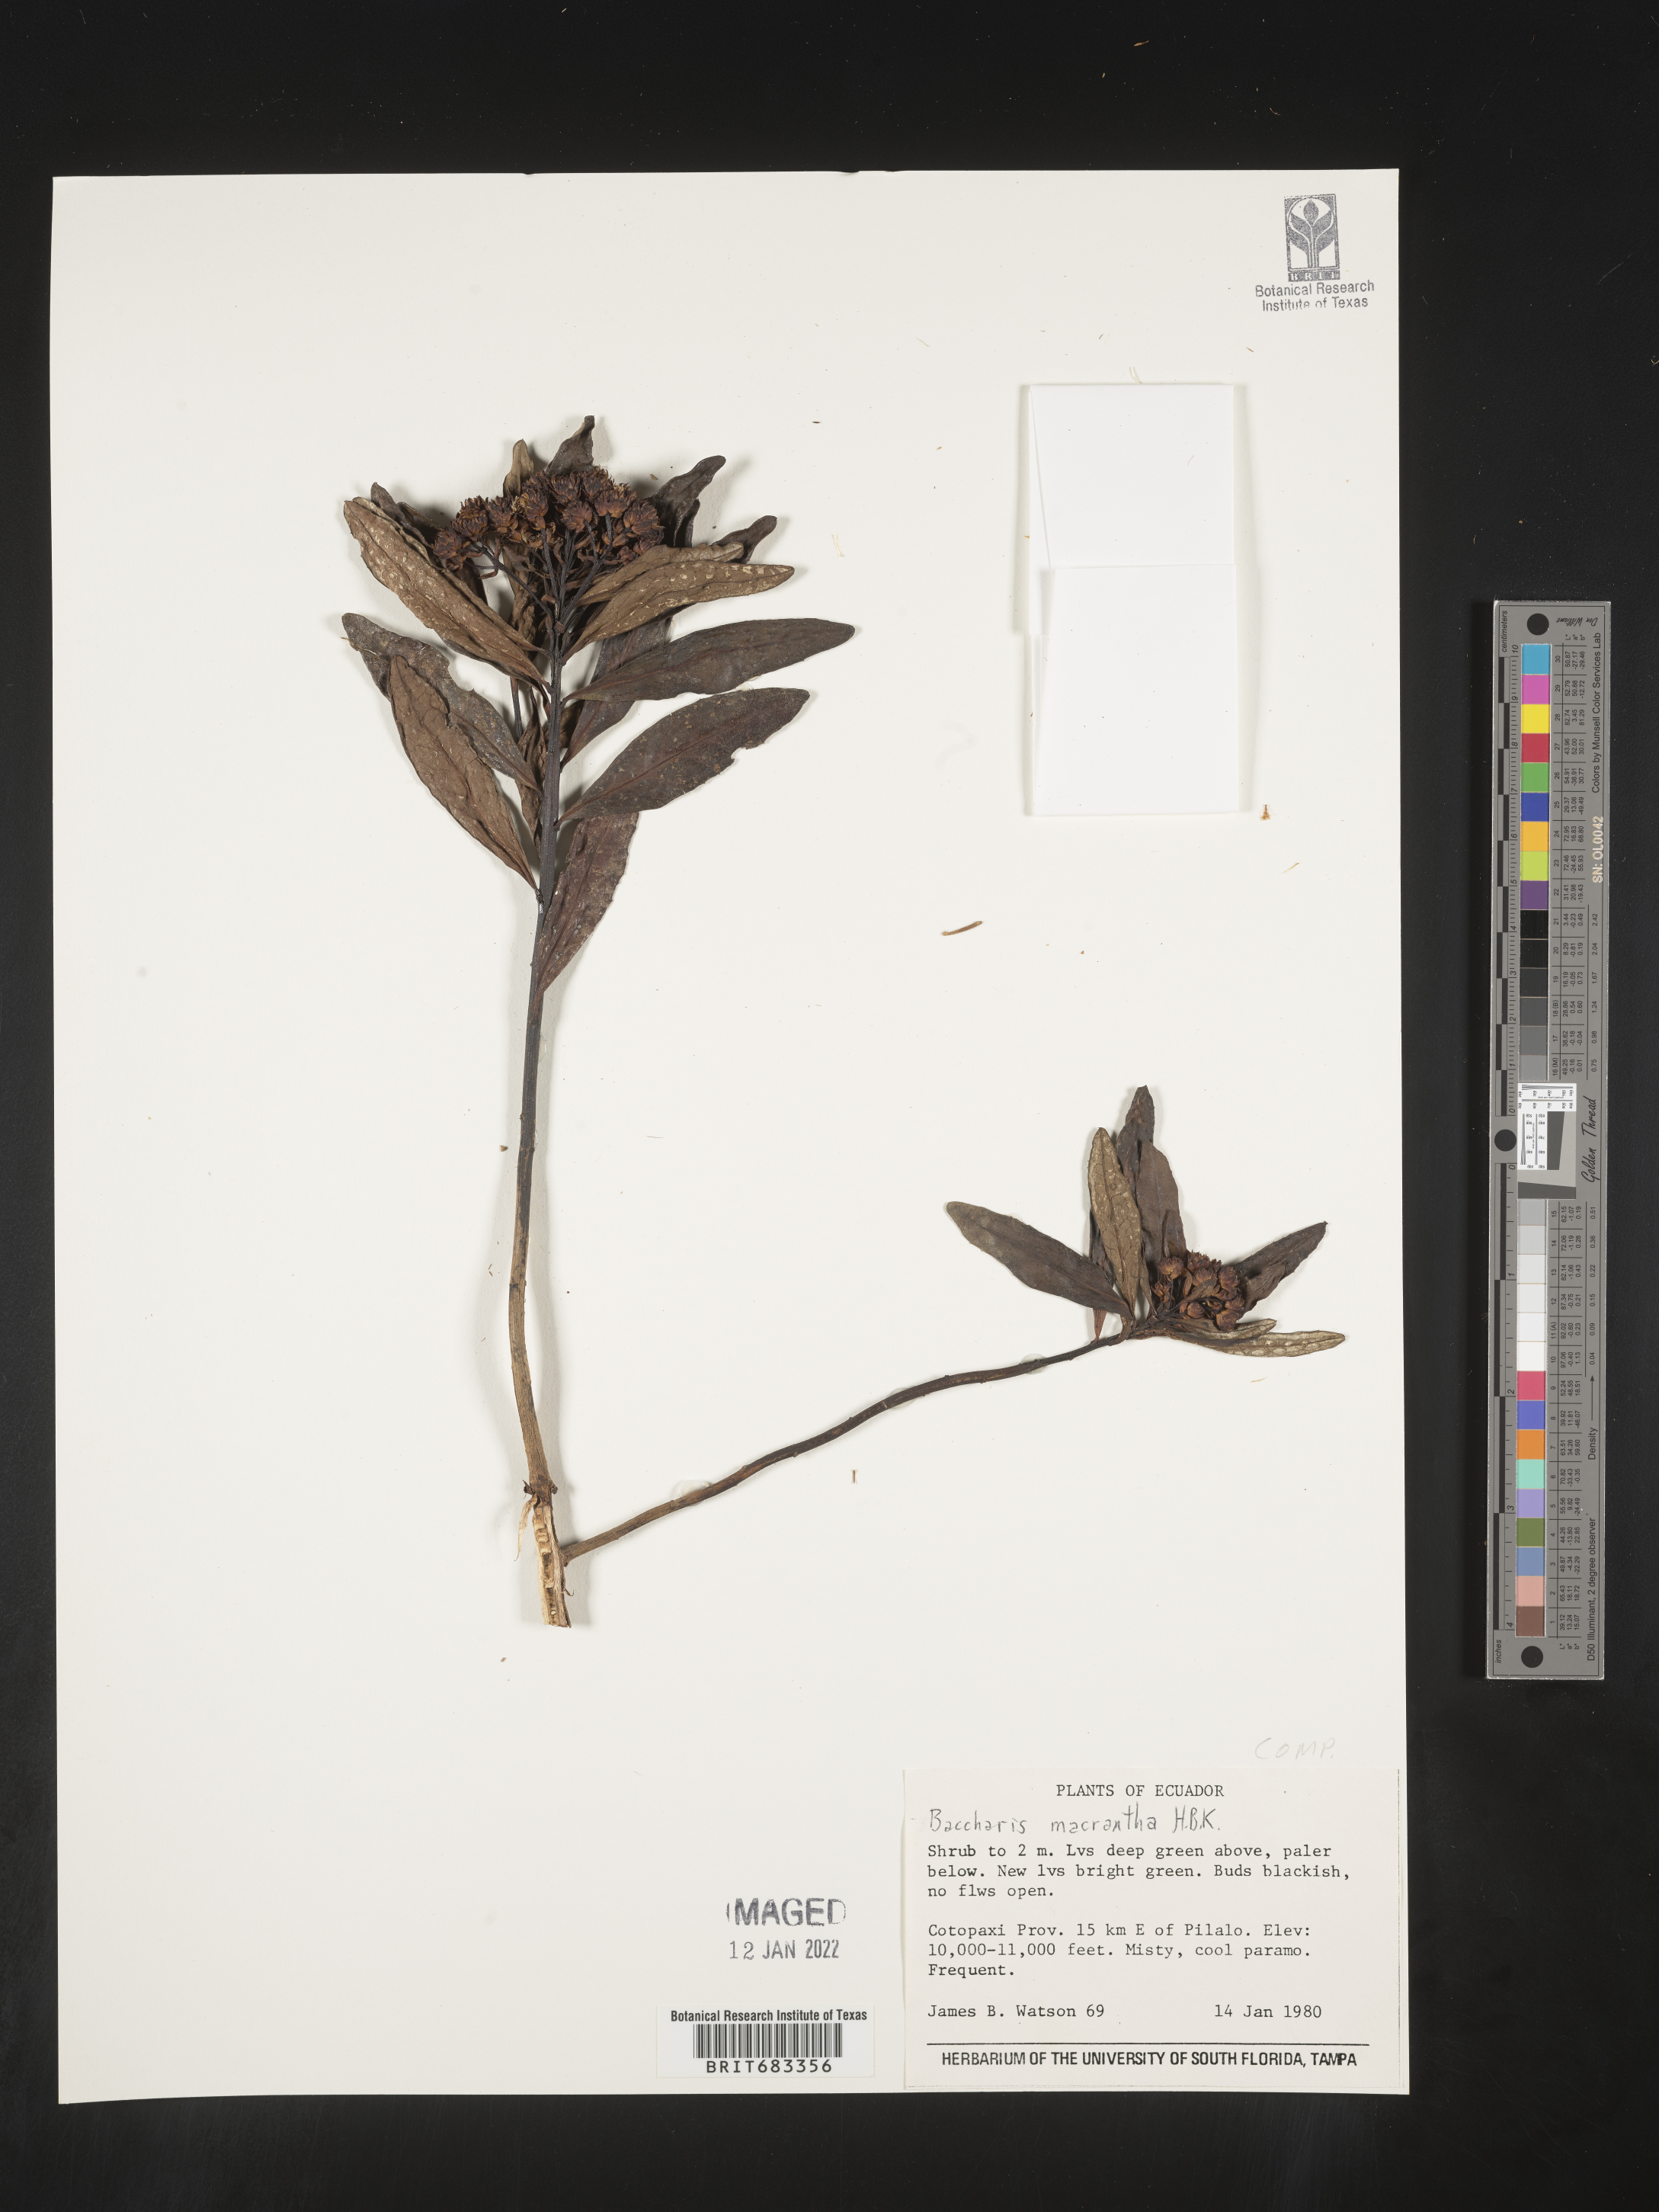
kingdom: Plantae
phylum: Tracheophyta
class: Magnoliopsida
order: Asterales
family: Asteraceae
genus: Baccharis
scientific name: Baccharis
